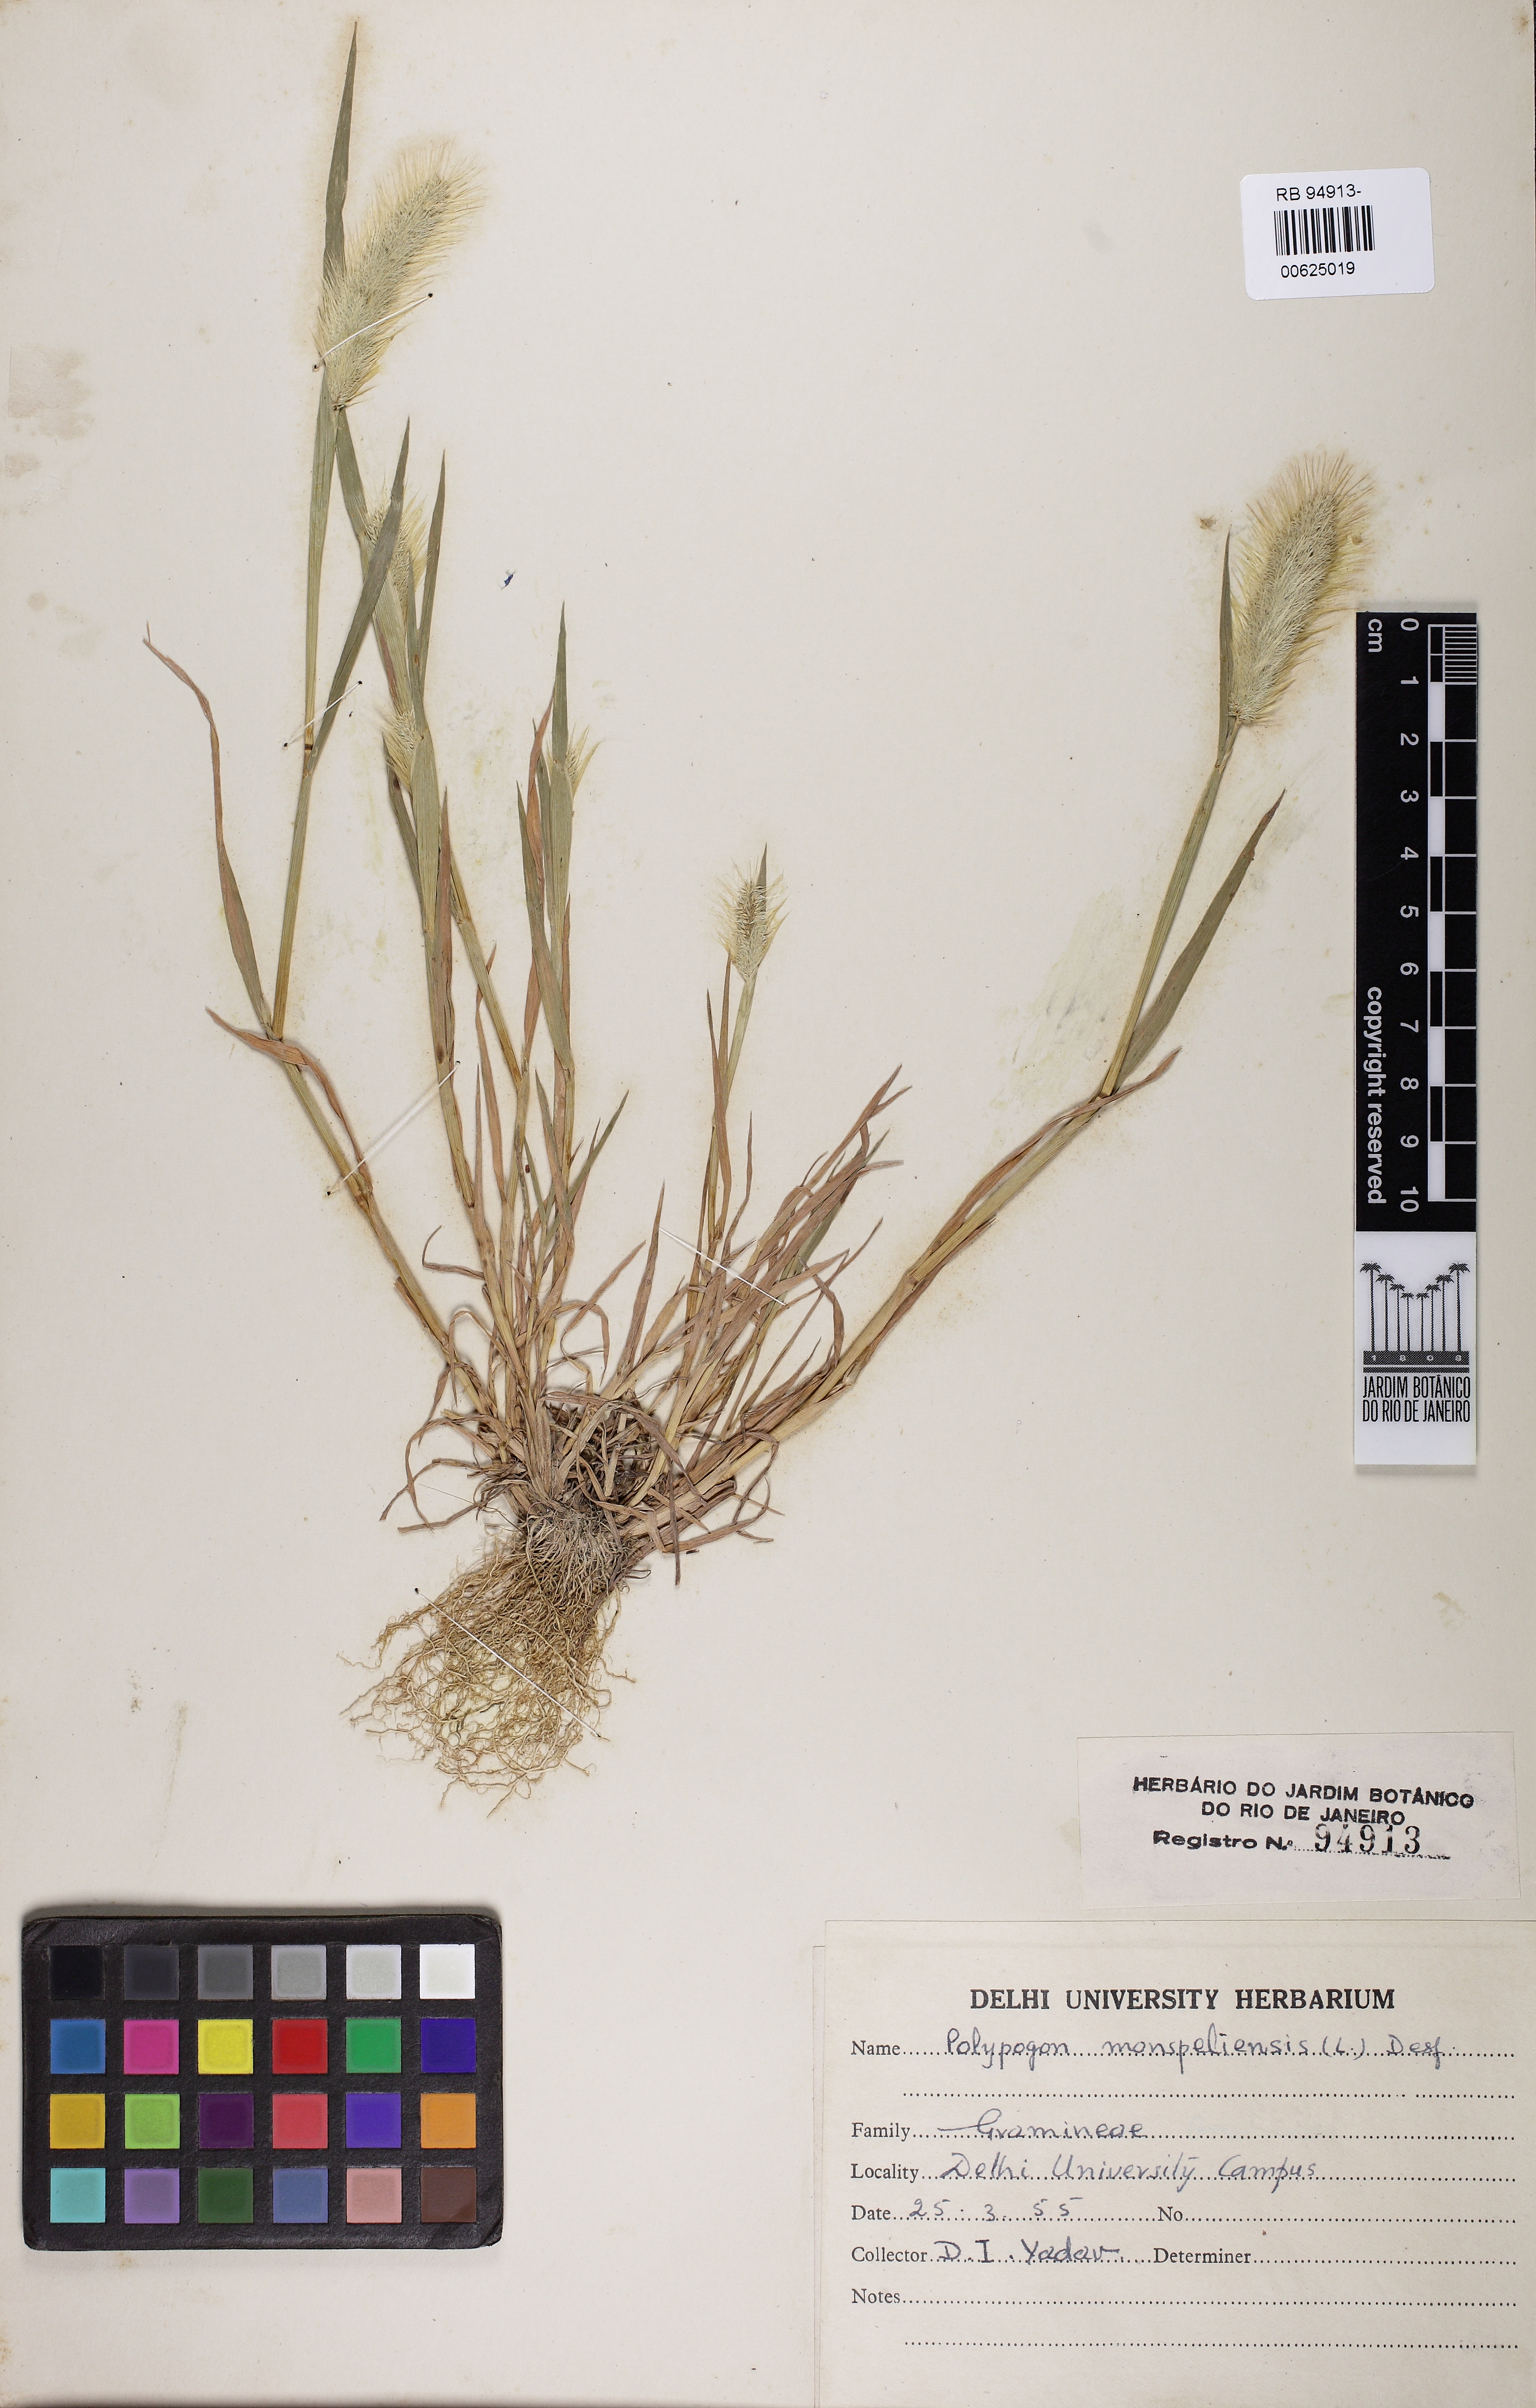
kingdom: Plantae
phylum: Tracheophyta
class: Liliopsida
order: Poales
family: Poaceae
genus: Polypogon
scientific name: Polypogon monspeliensis
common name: Annual rabbitsfoot grass
